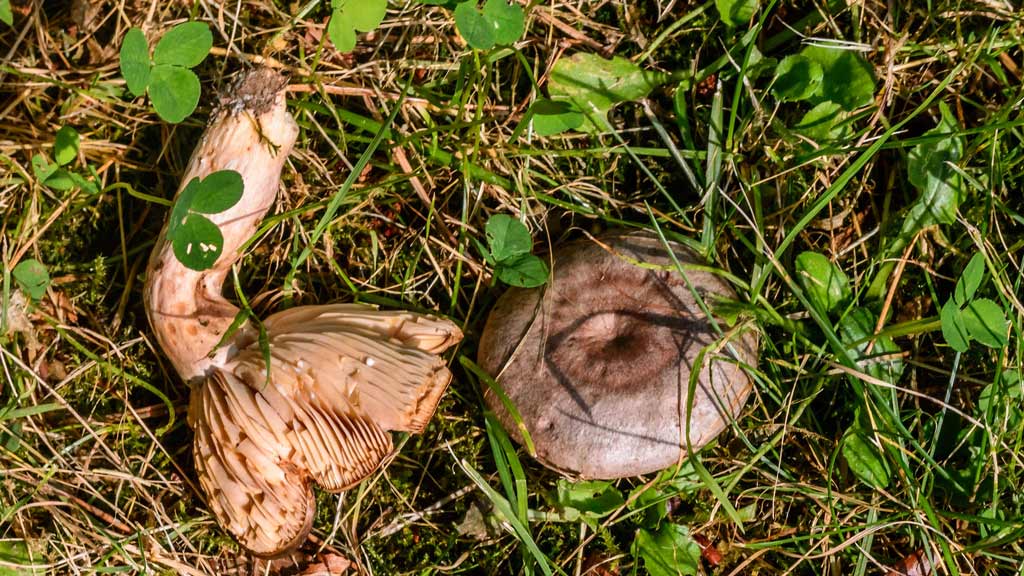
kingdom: Fungi
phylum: Basidiomycota
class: Agaricomycetes
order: Russulales
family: Russulaceae
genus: Lactarius
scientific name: Lactarius circellatus
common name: avnbøg-mælkehat
